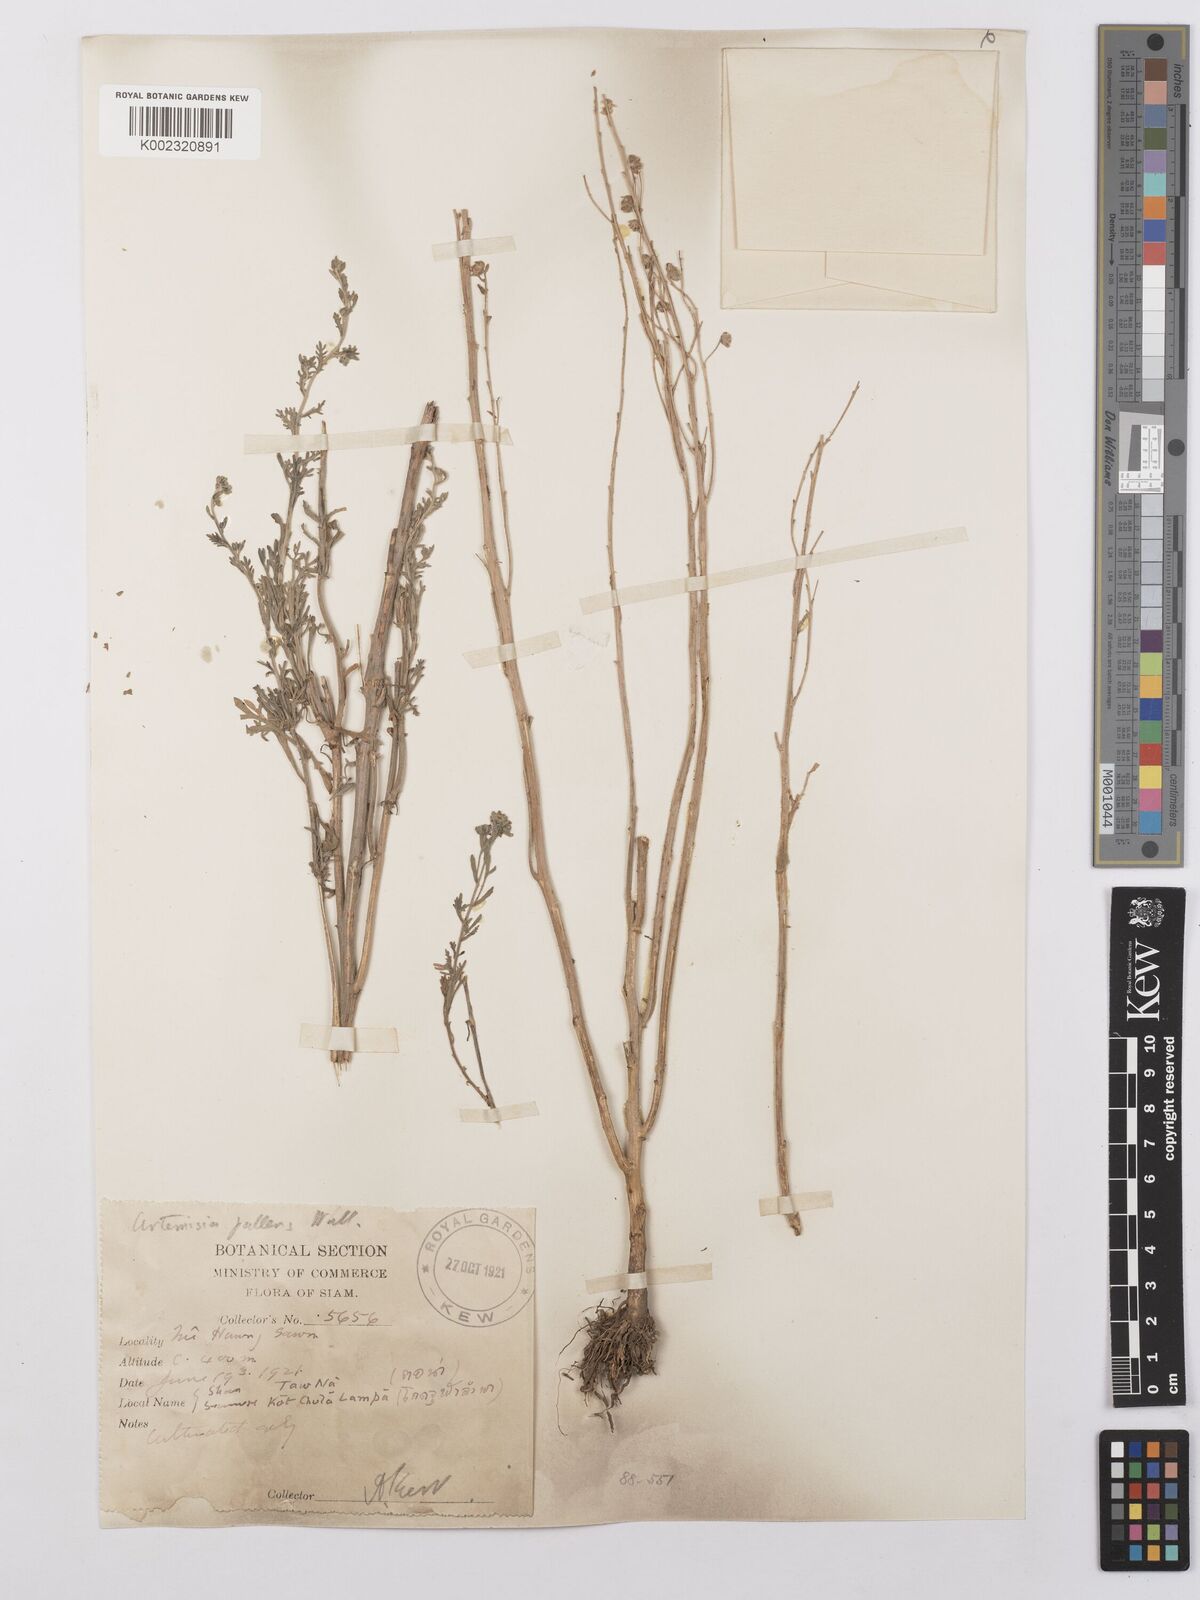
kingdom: Plantae
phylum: Tracheophyta
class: Magnoliopsida
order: Asterales
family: Asteraceae
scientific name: Asteraceae
